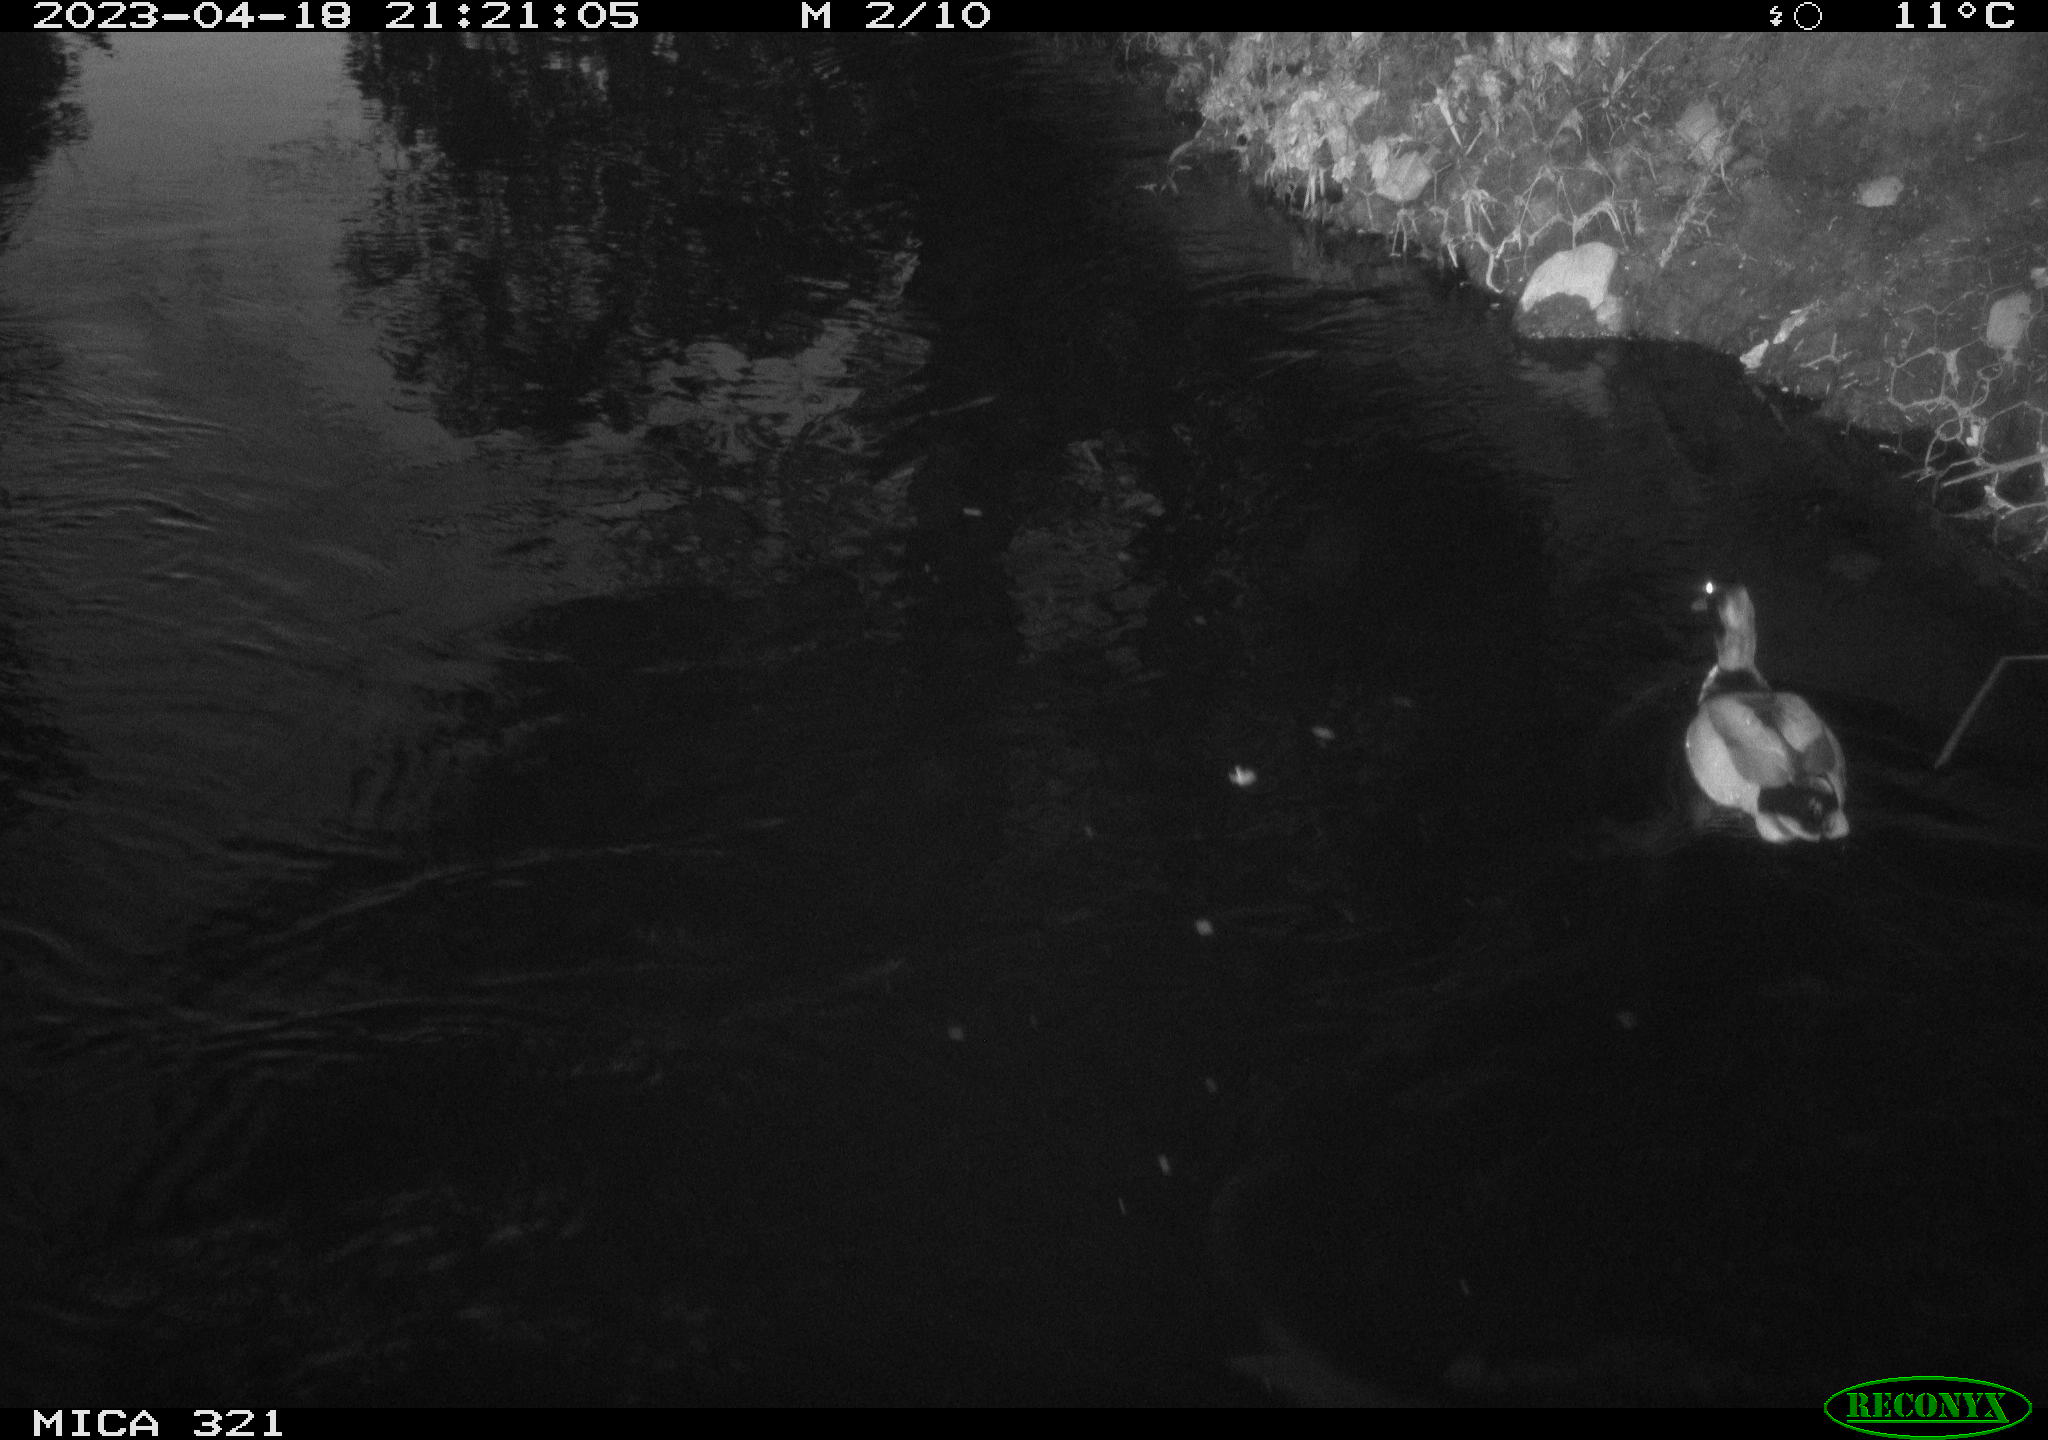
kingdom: Animalia
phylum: Chordata
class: Aves
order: Anseriformes
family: Anatidae
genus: Anas
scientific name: Anas
